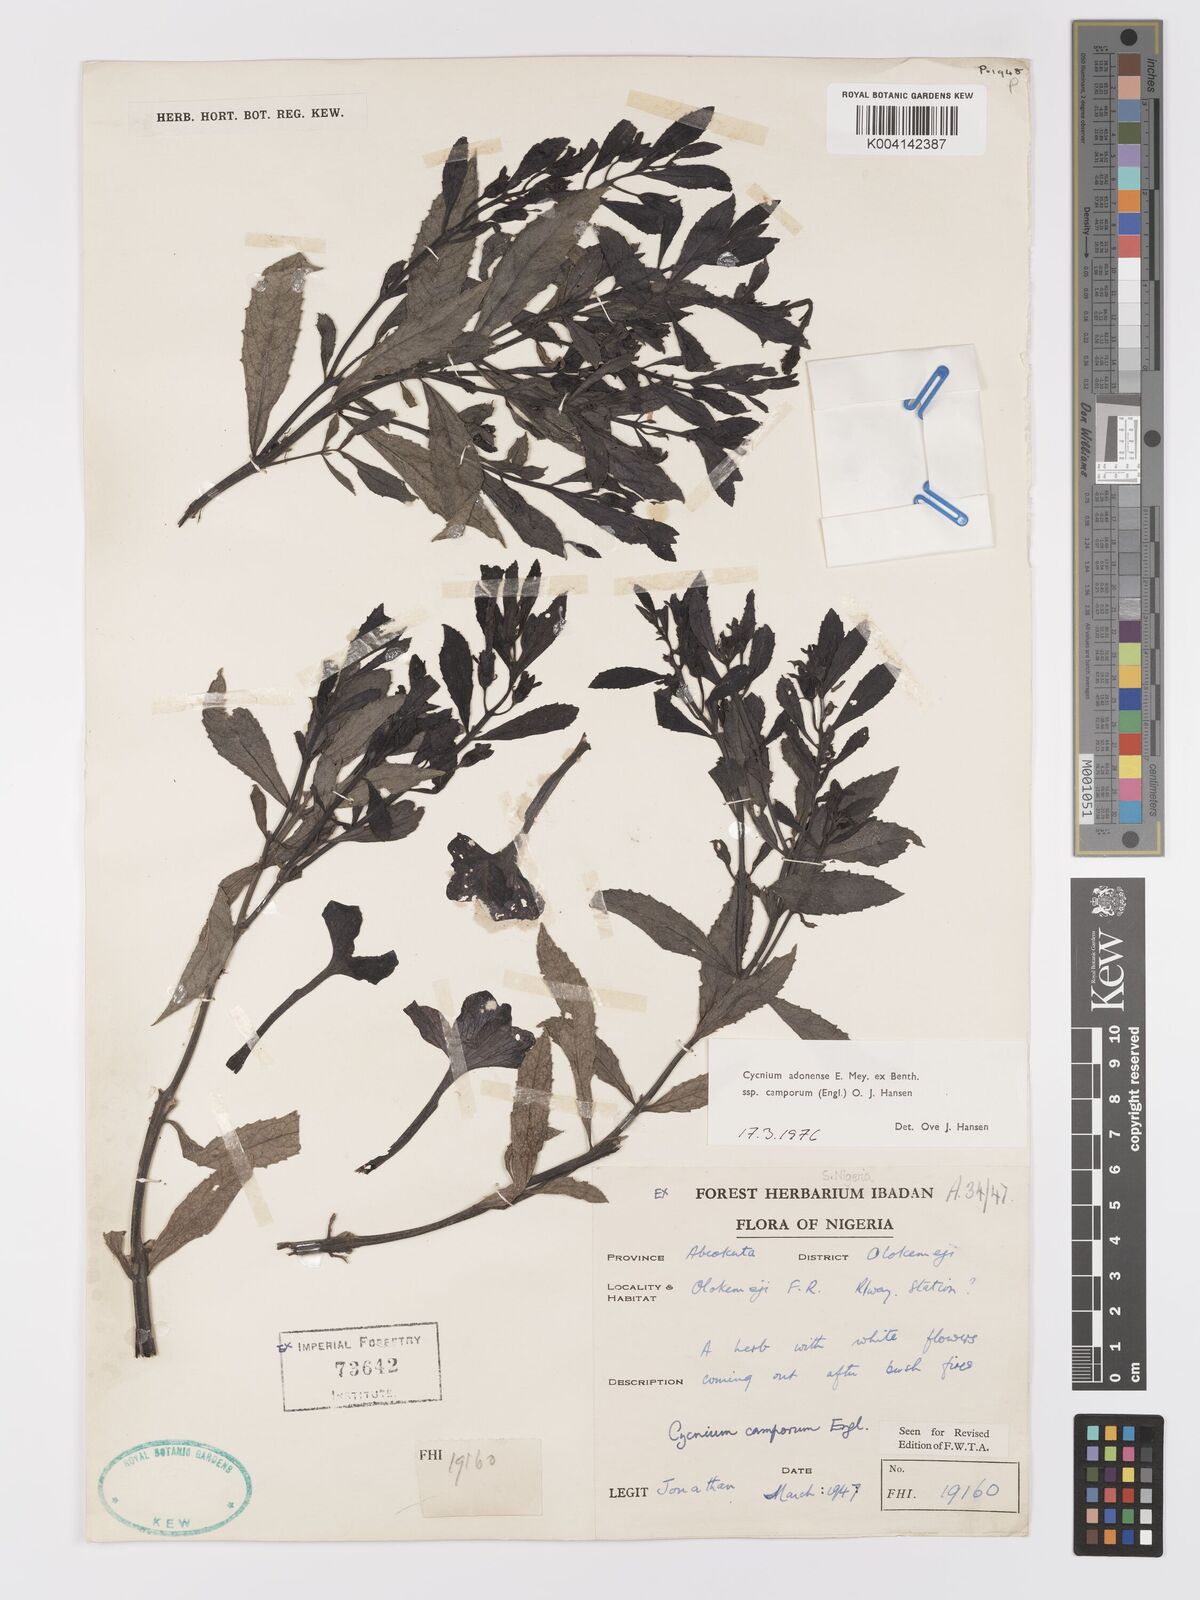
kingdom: Plantae
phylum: Tracheophyta
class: Magnoliopsida
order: Lamiales
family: Orobanchaceae
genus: Cycnium
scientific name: Cycnium adoense
